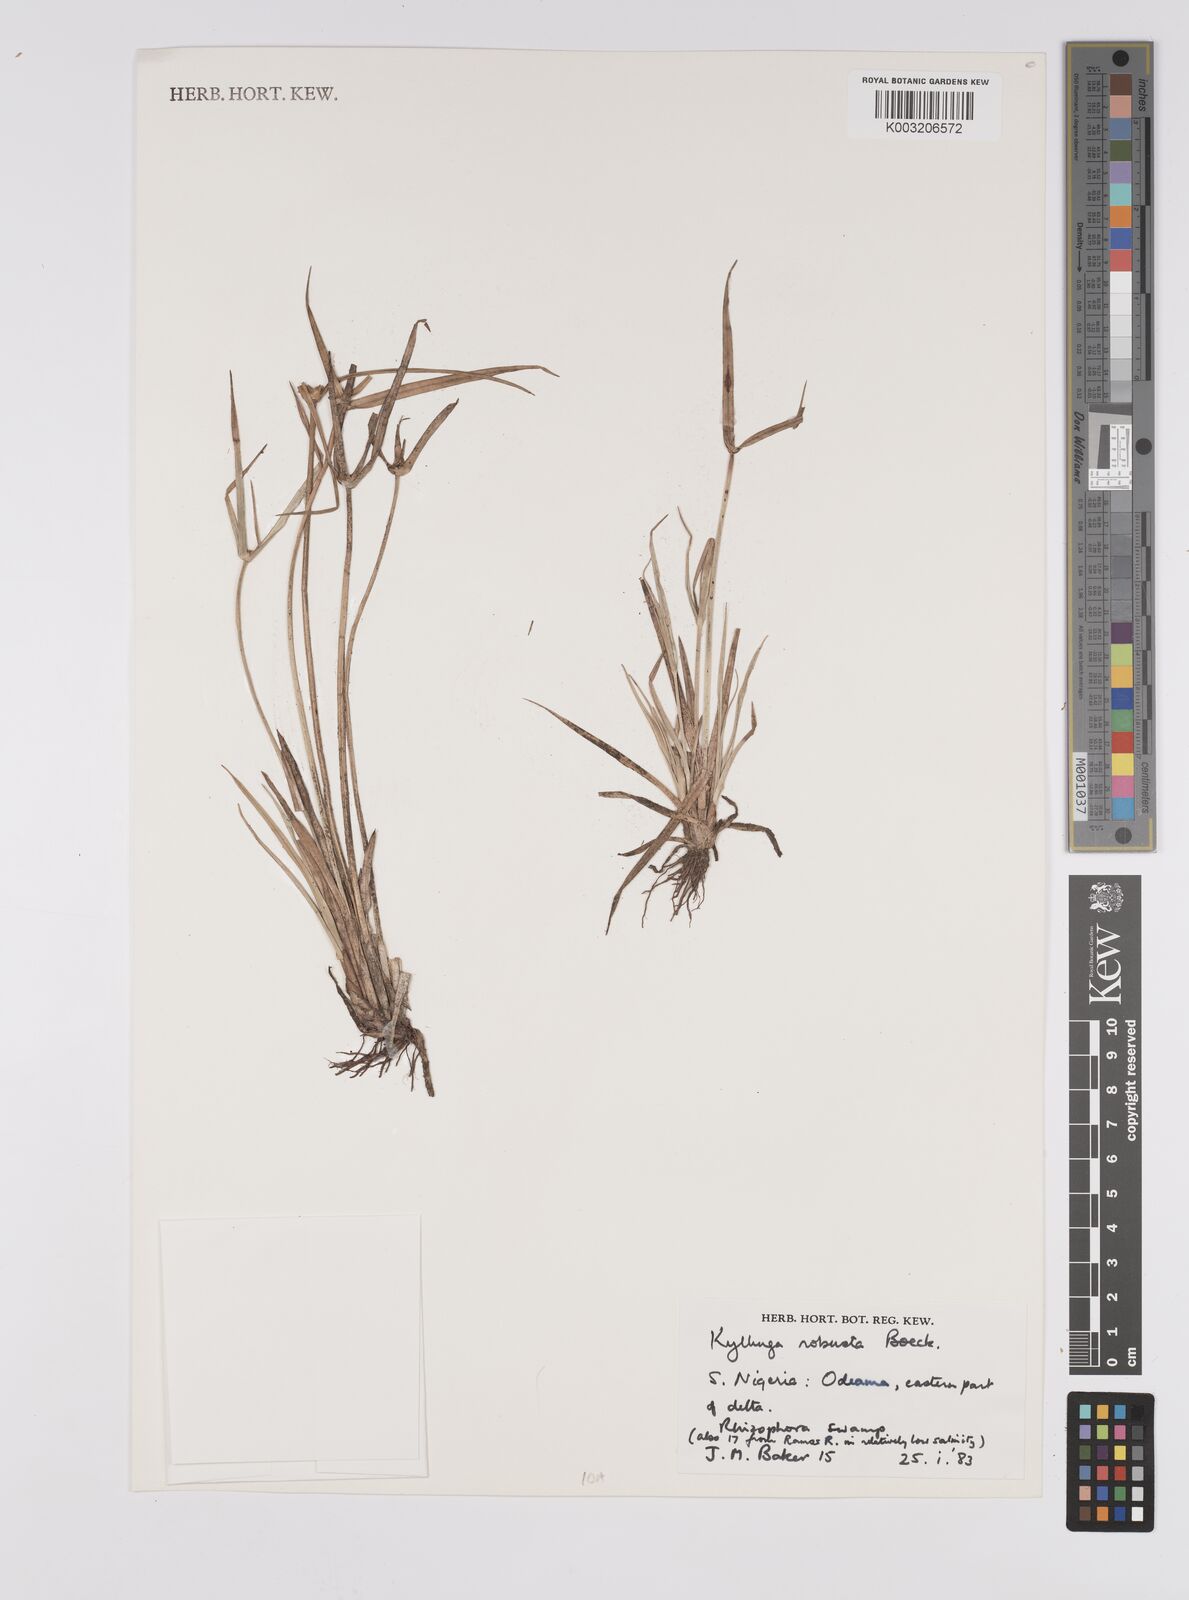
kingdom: Plantae
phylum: Tracheophyta
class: Liliopsida
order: Poales
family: Cyperaceae
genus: Cyperus
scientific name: Cyperus
